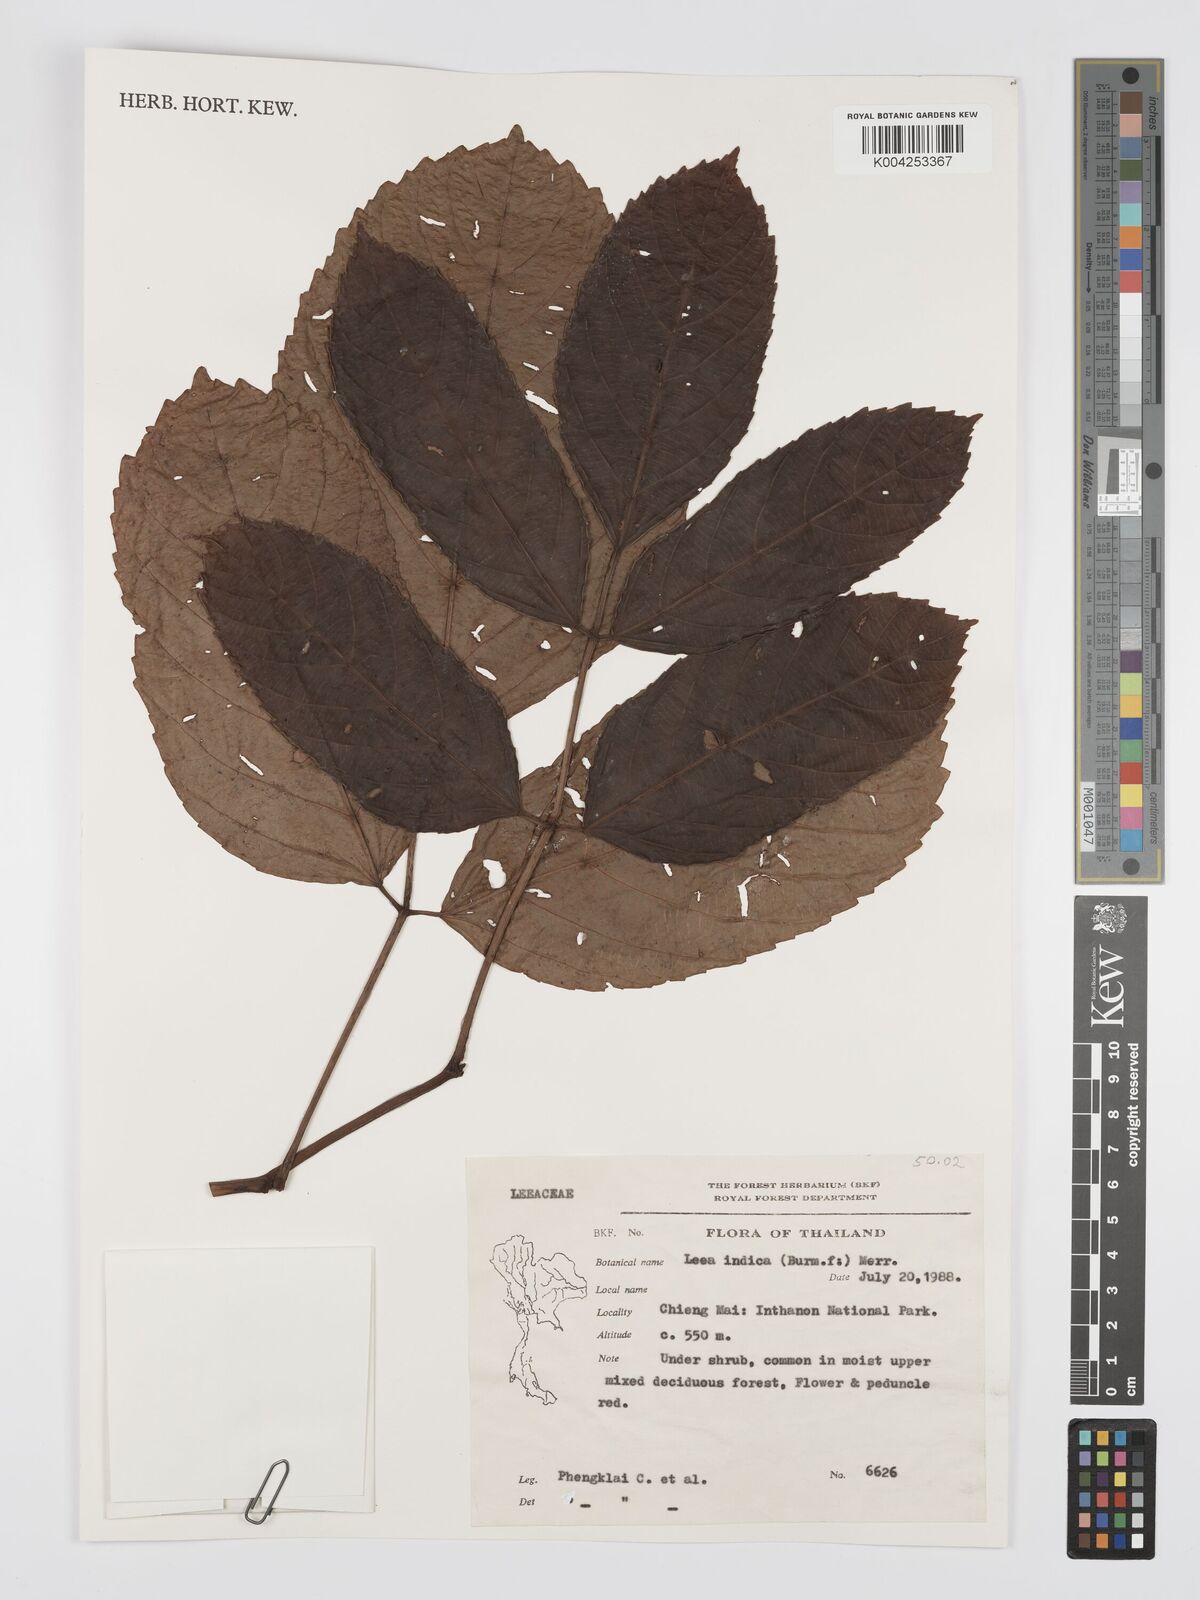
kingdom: Plantae
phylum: Tracheophyta
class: Magnoliopsida
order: Vitales
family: Vitaceae
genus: Leea
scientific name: Leea indica
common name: Bandicoot-berry
